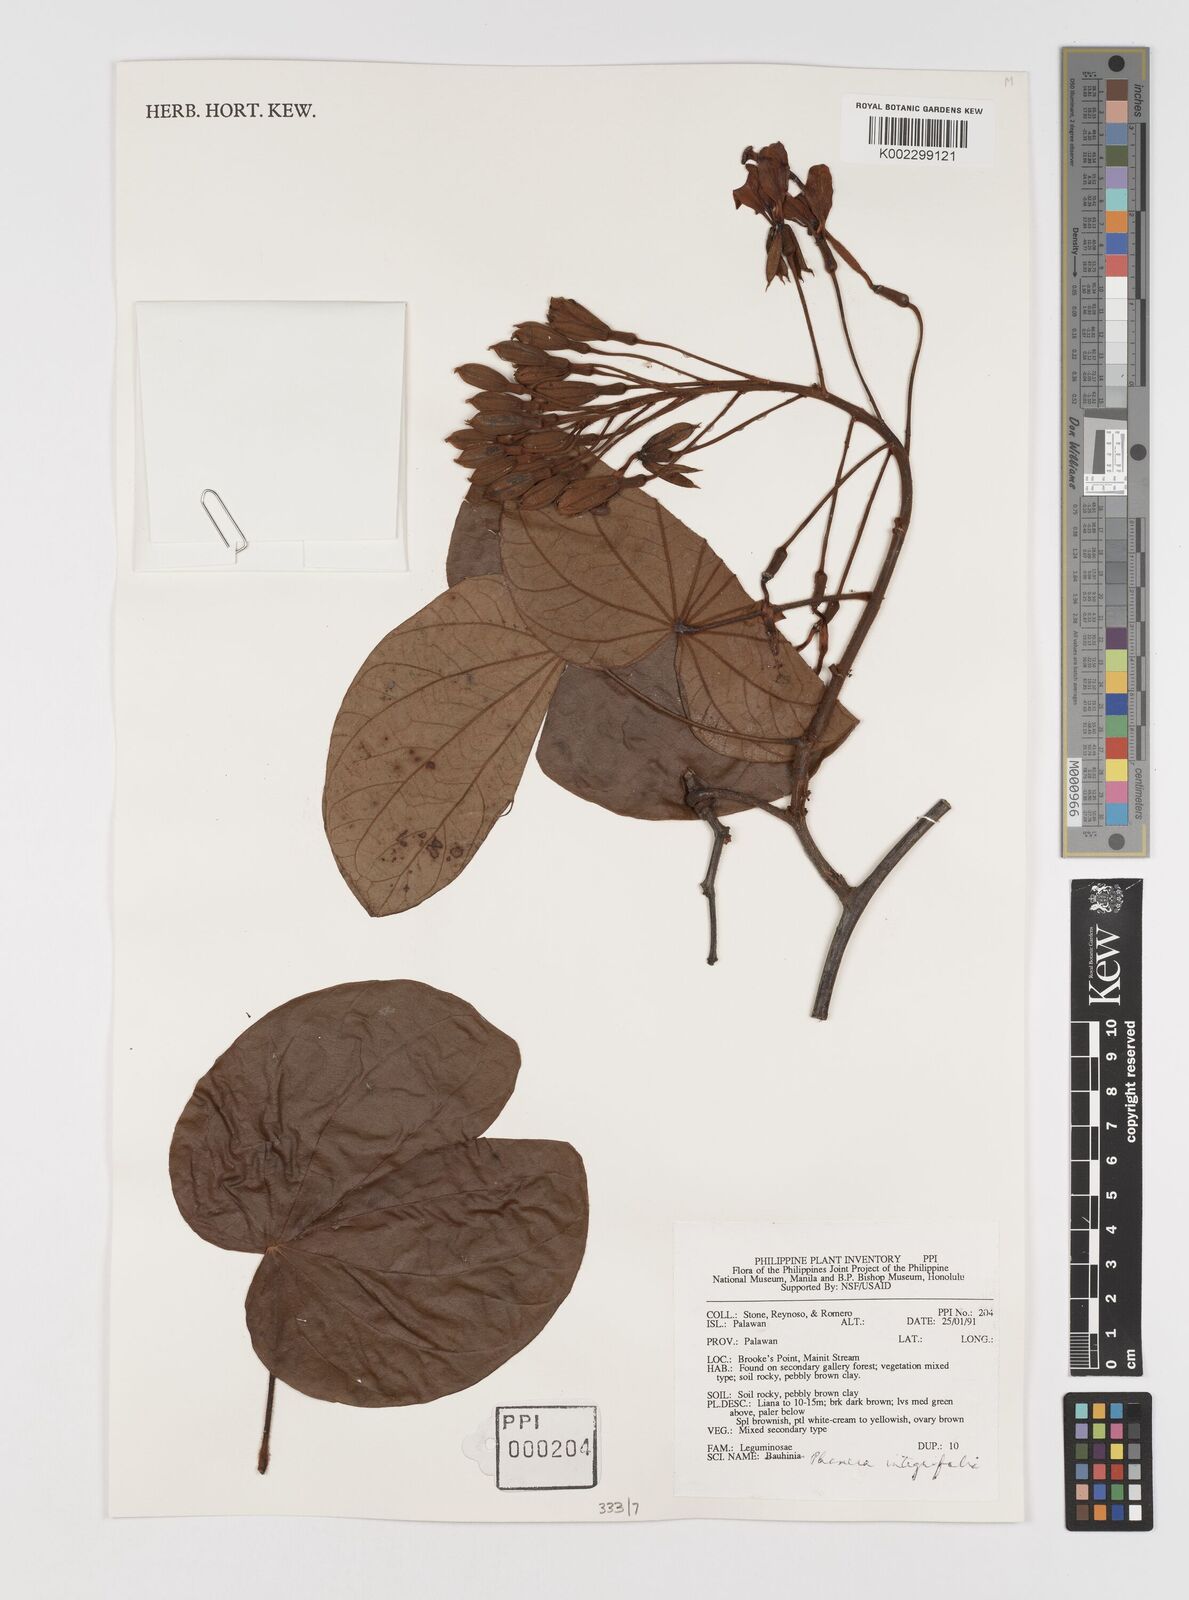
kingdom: Plantae
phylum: Tracheophyta
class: Magnoliopsida
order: Fabales
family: Fabaceae
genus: Phanera
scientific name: Phanera integrifolia
